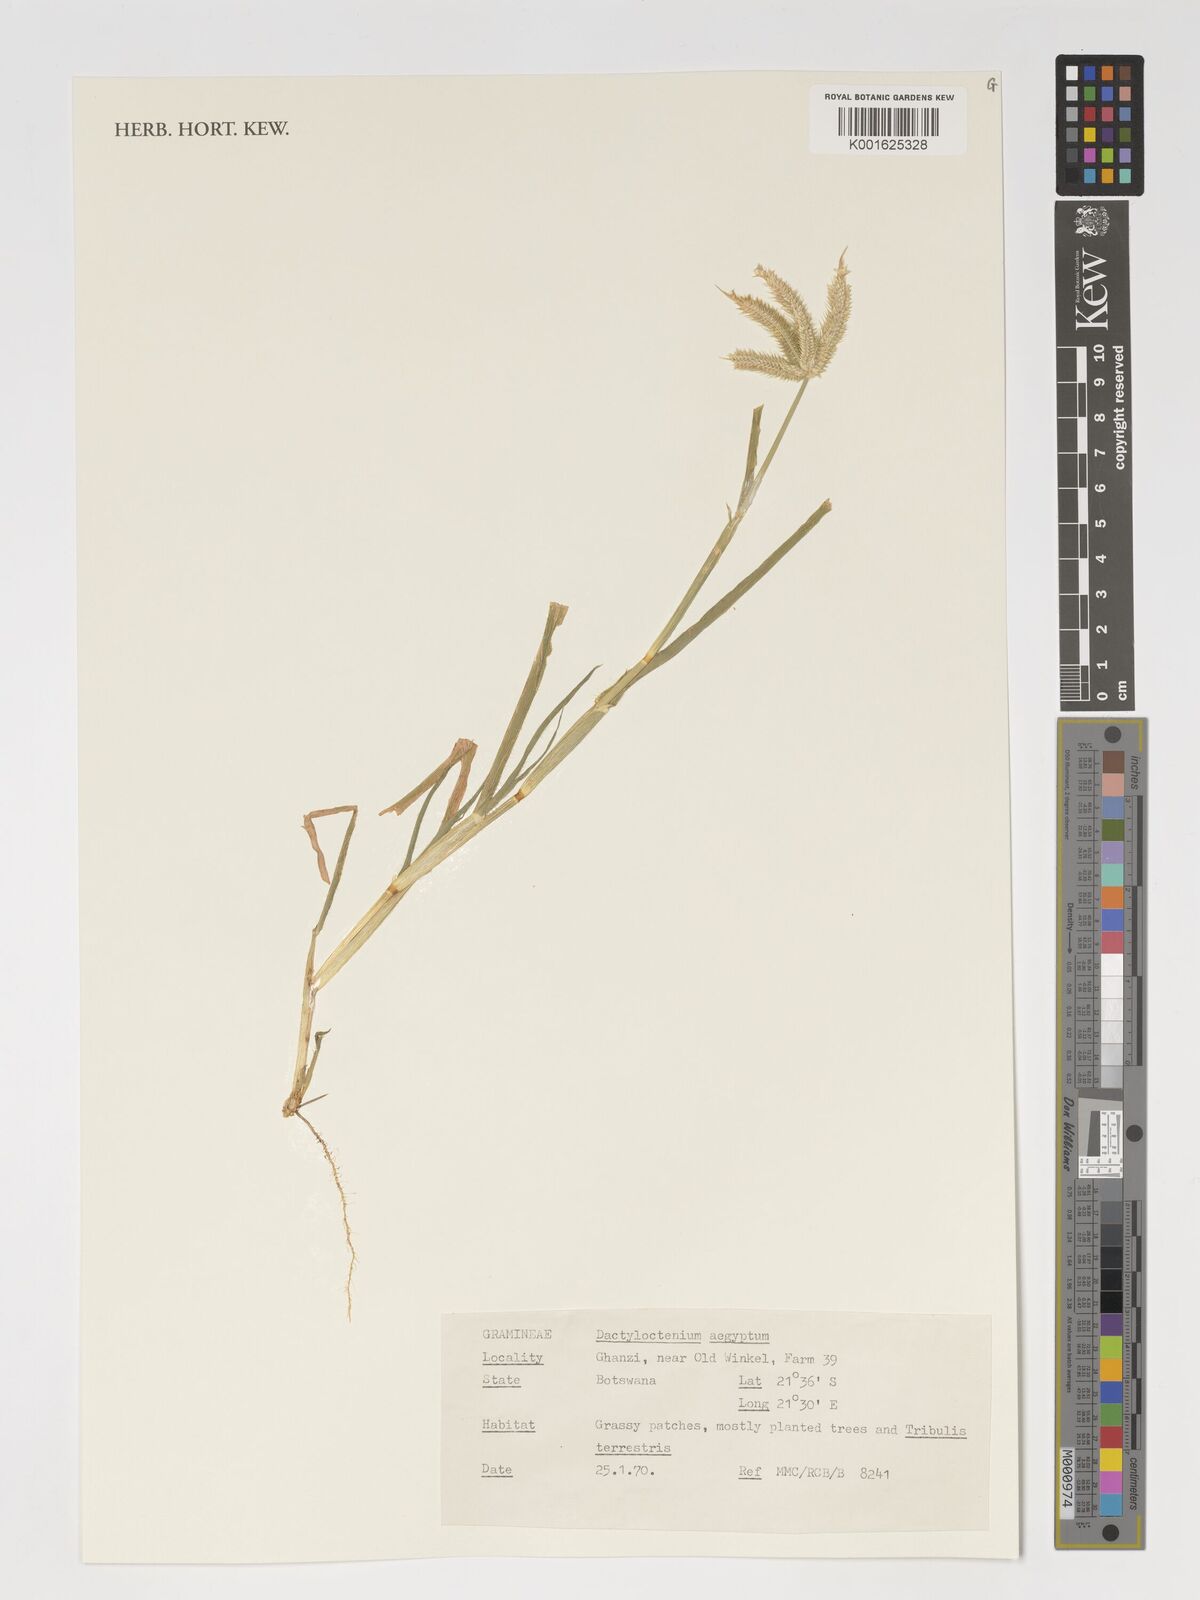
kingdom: Plantae
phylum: Tracheophyta
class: Liliopsida
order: Poales
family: Poaceae
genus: Dactyloctenium
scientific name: Dactyloctenium aegyptium
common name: Egyptian grass
